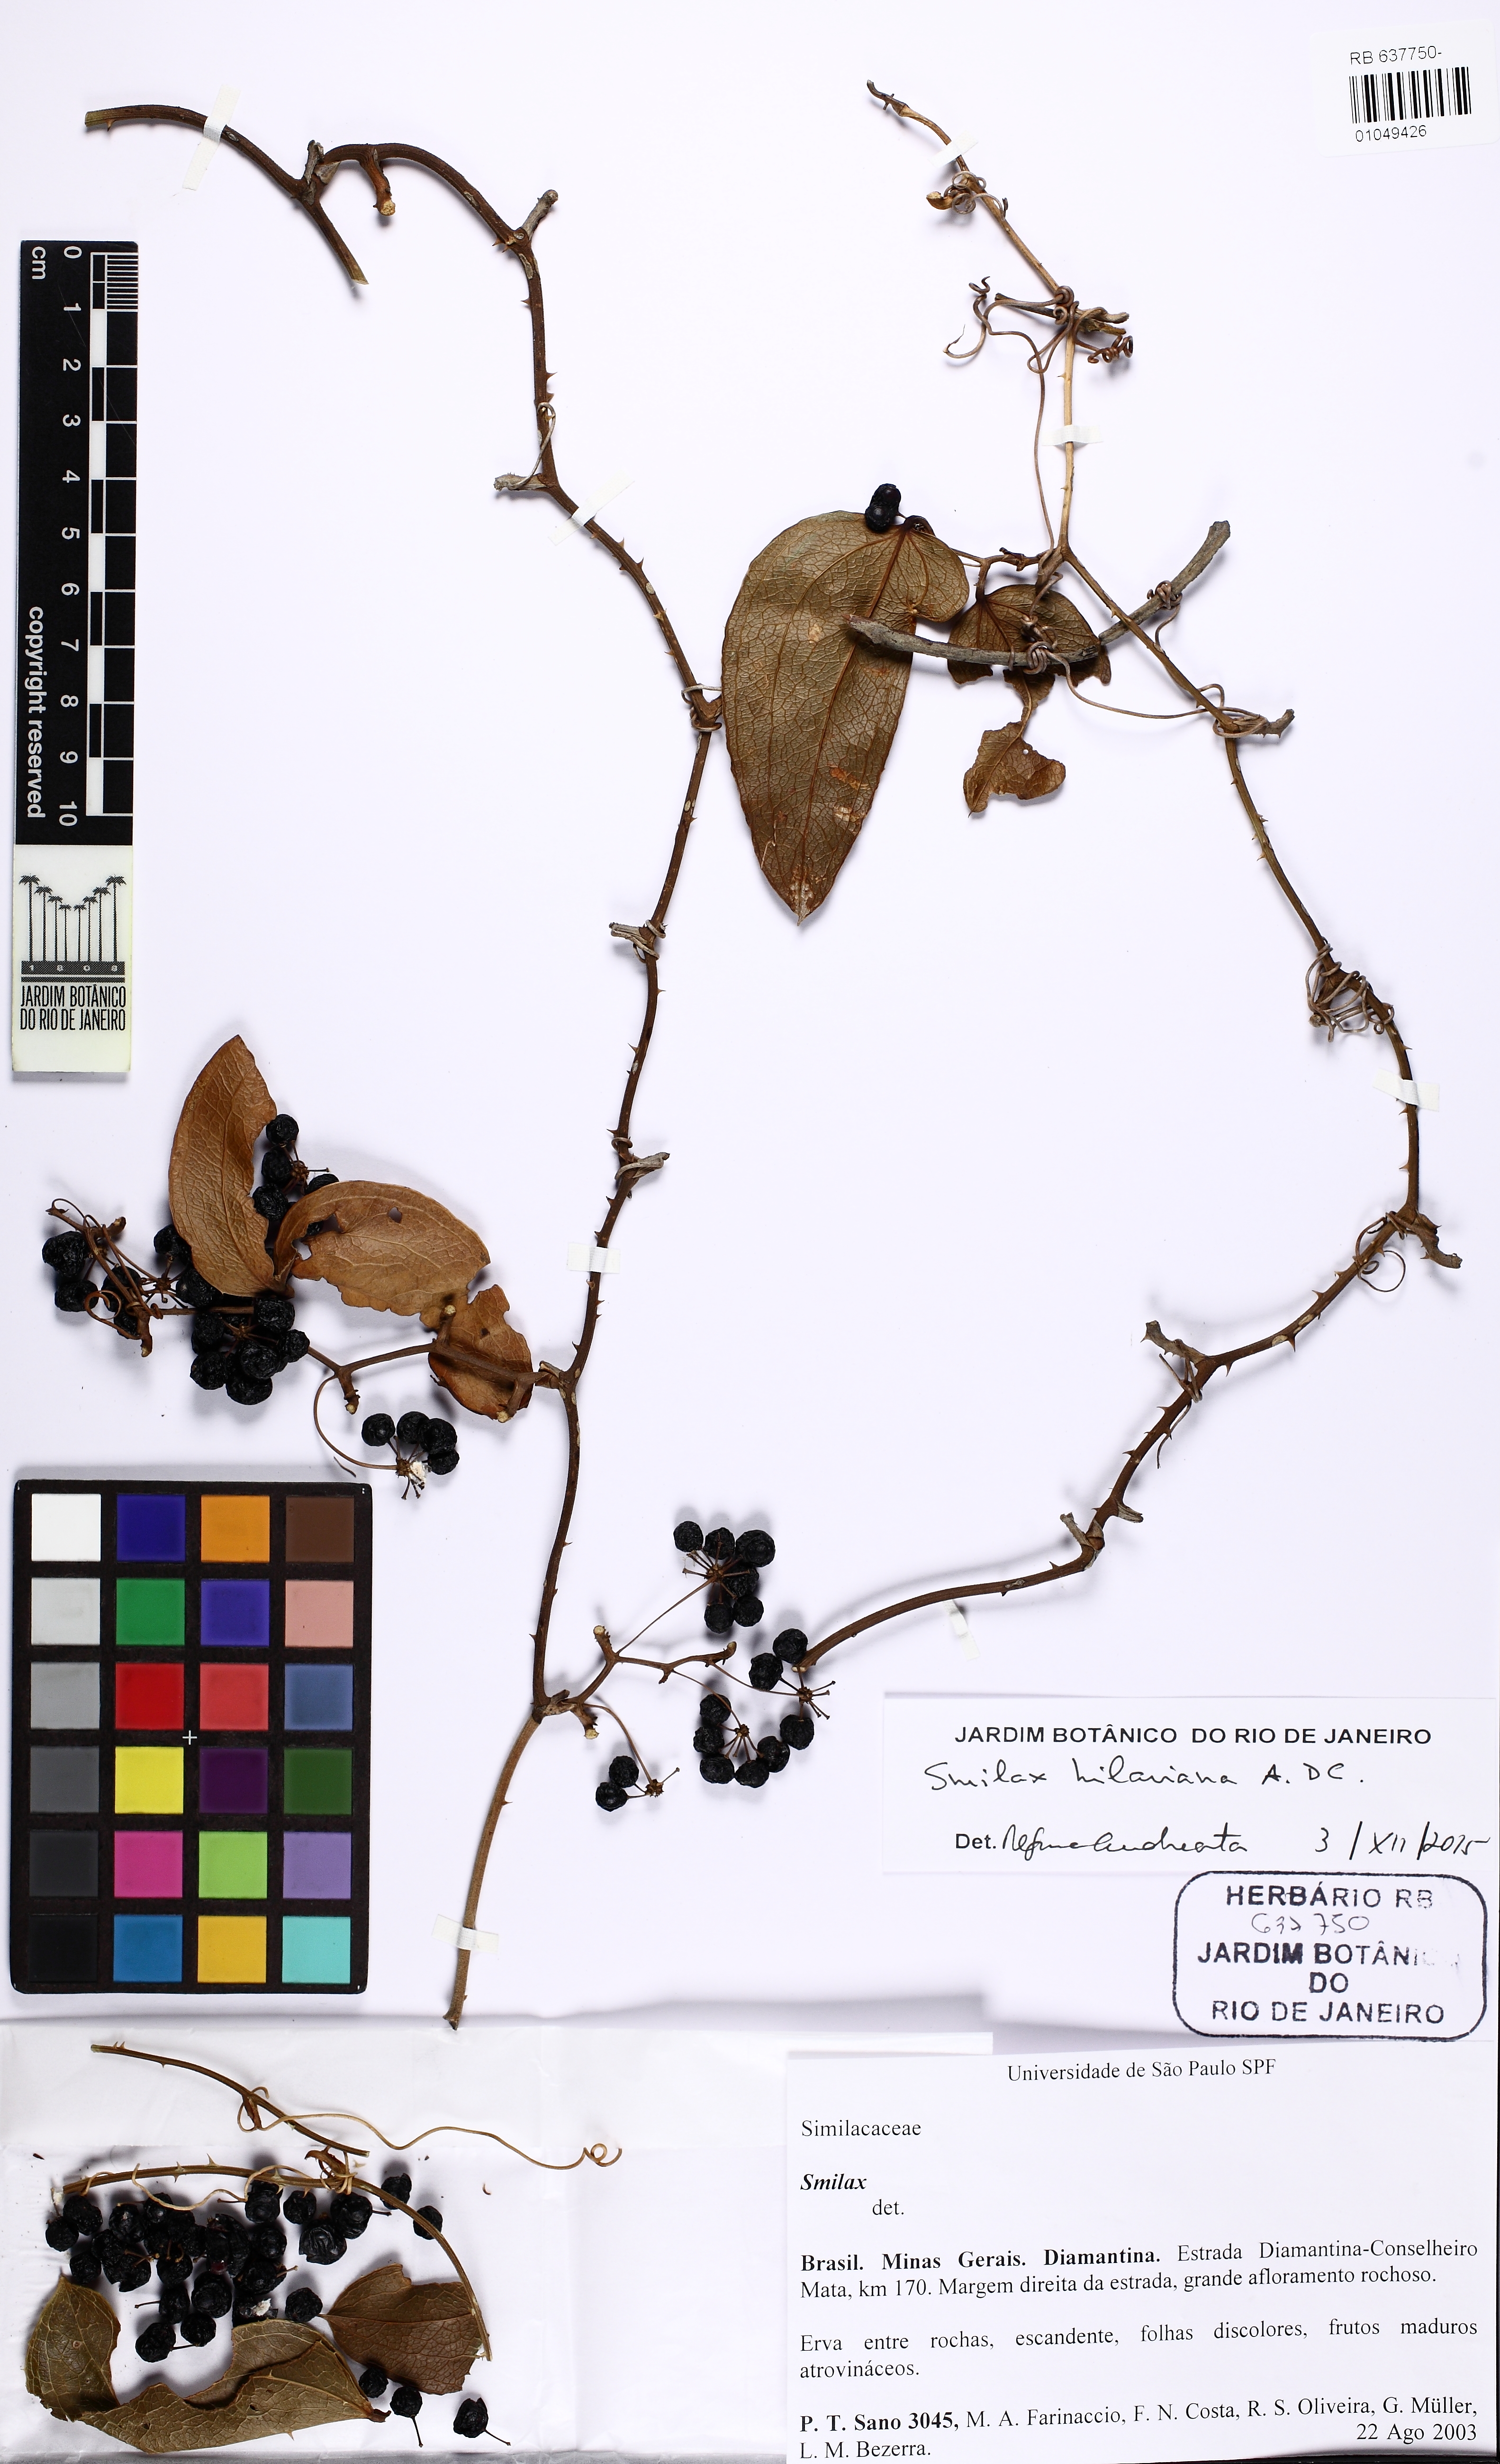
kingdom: Plantae
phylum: Tracheophyta
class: Liliopsida
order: Liliales
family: Smilacaceae
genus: Smilax
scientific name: Smilax hilariana
